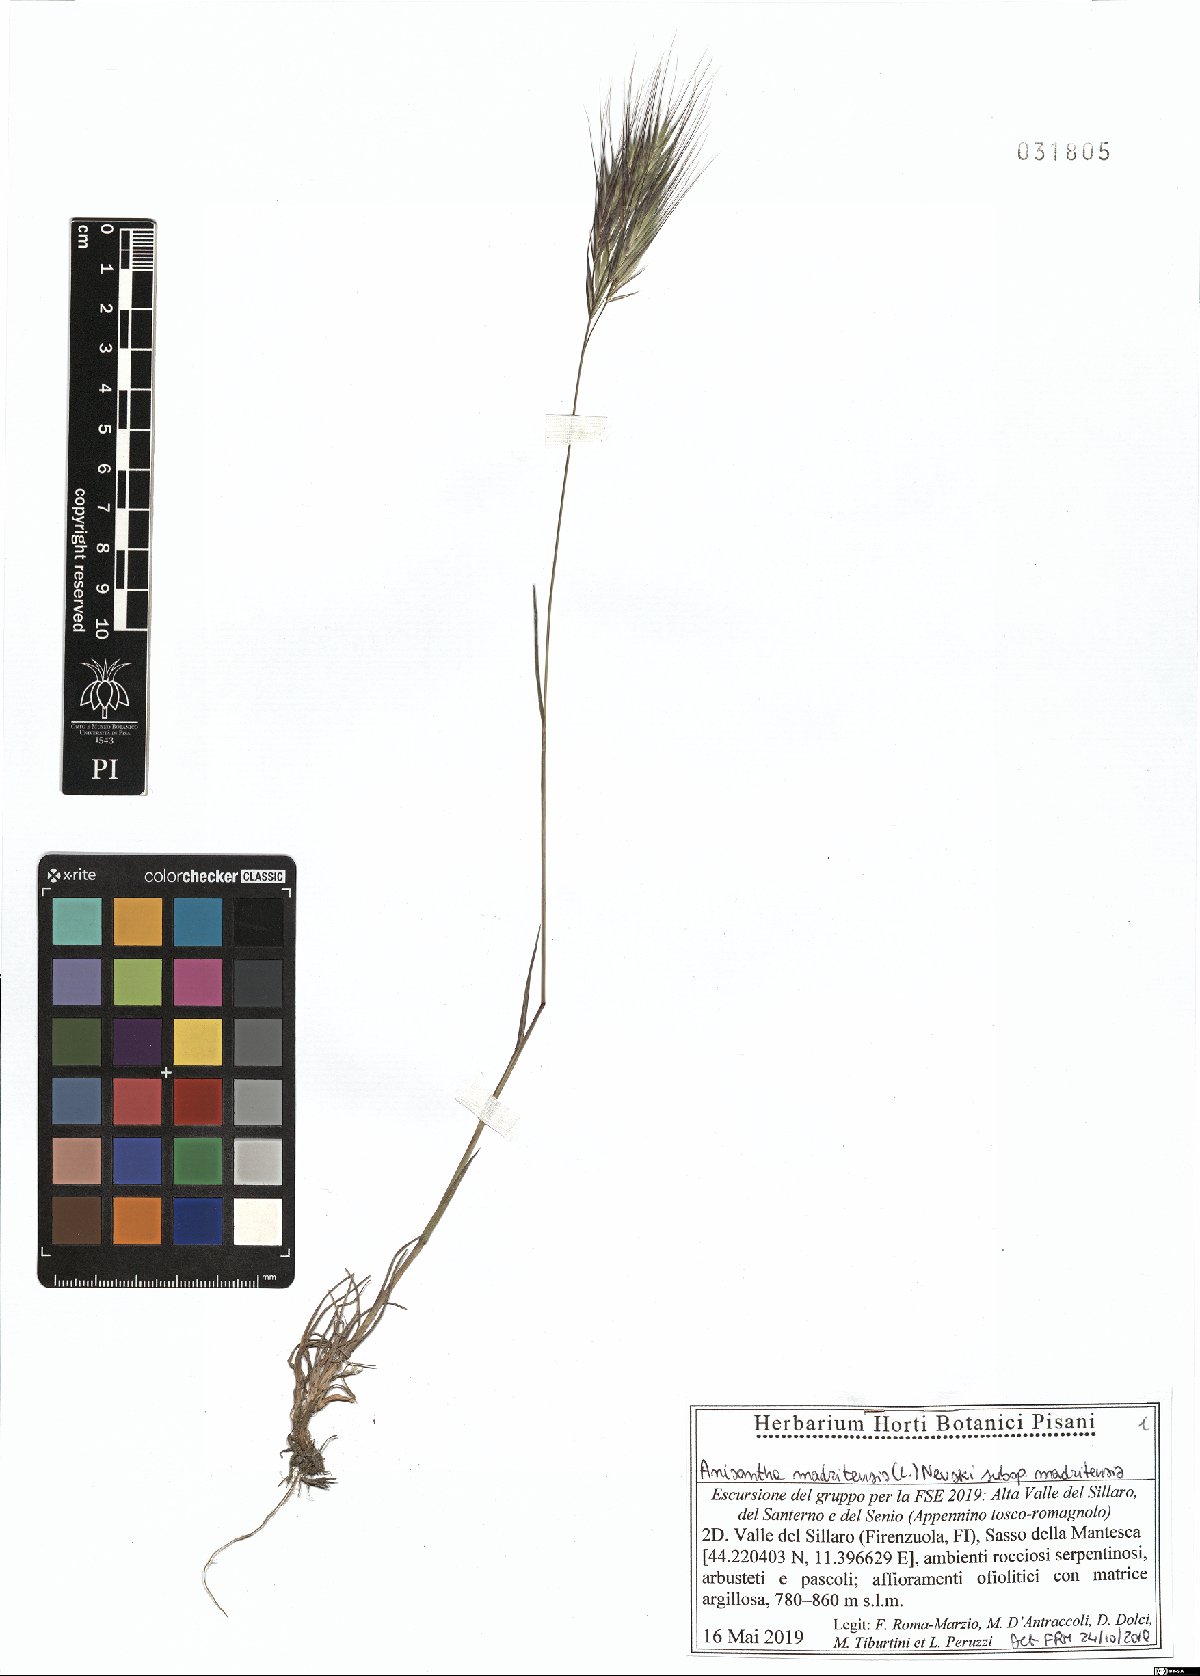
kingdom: Plantae
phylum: Tracheophyta
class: Liliopsida
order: Poales
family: Poaceae
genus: Bromus
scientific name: Bromus madritensis
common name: Compact brome
